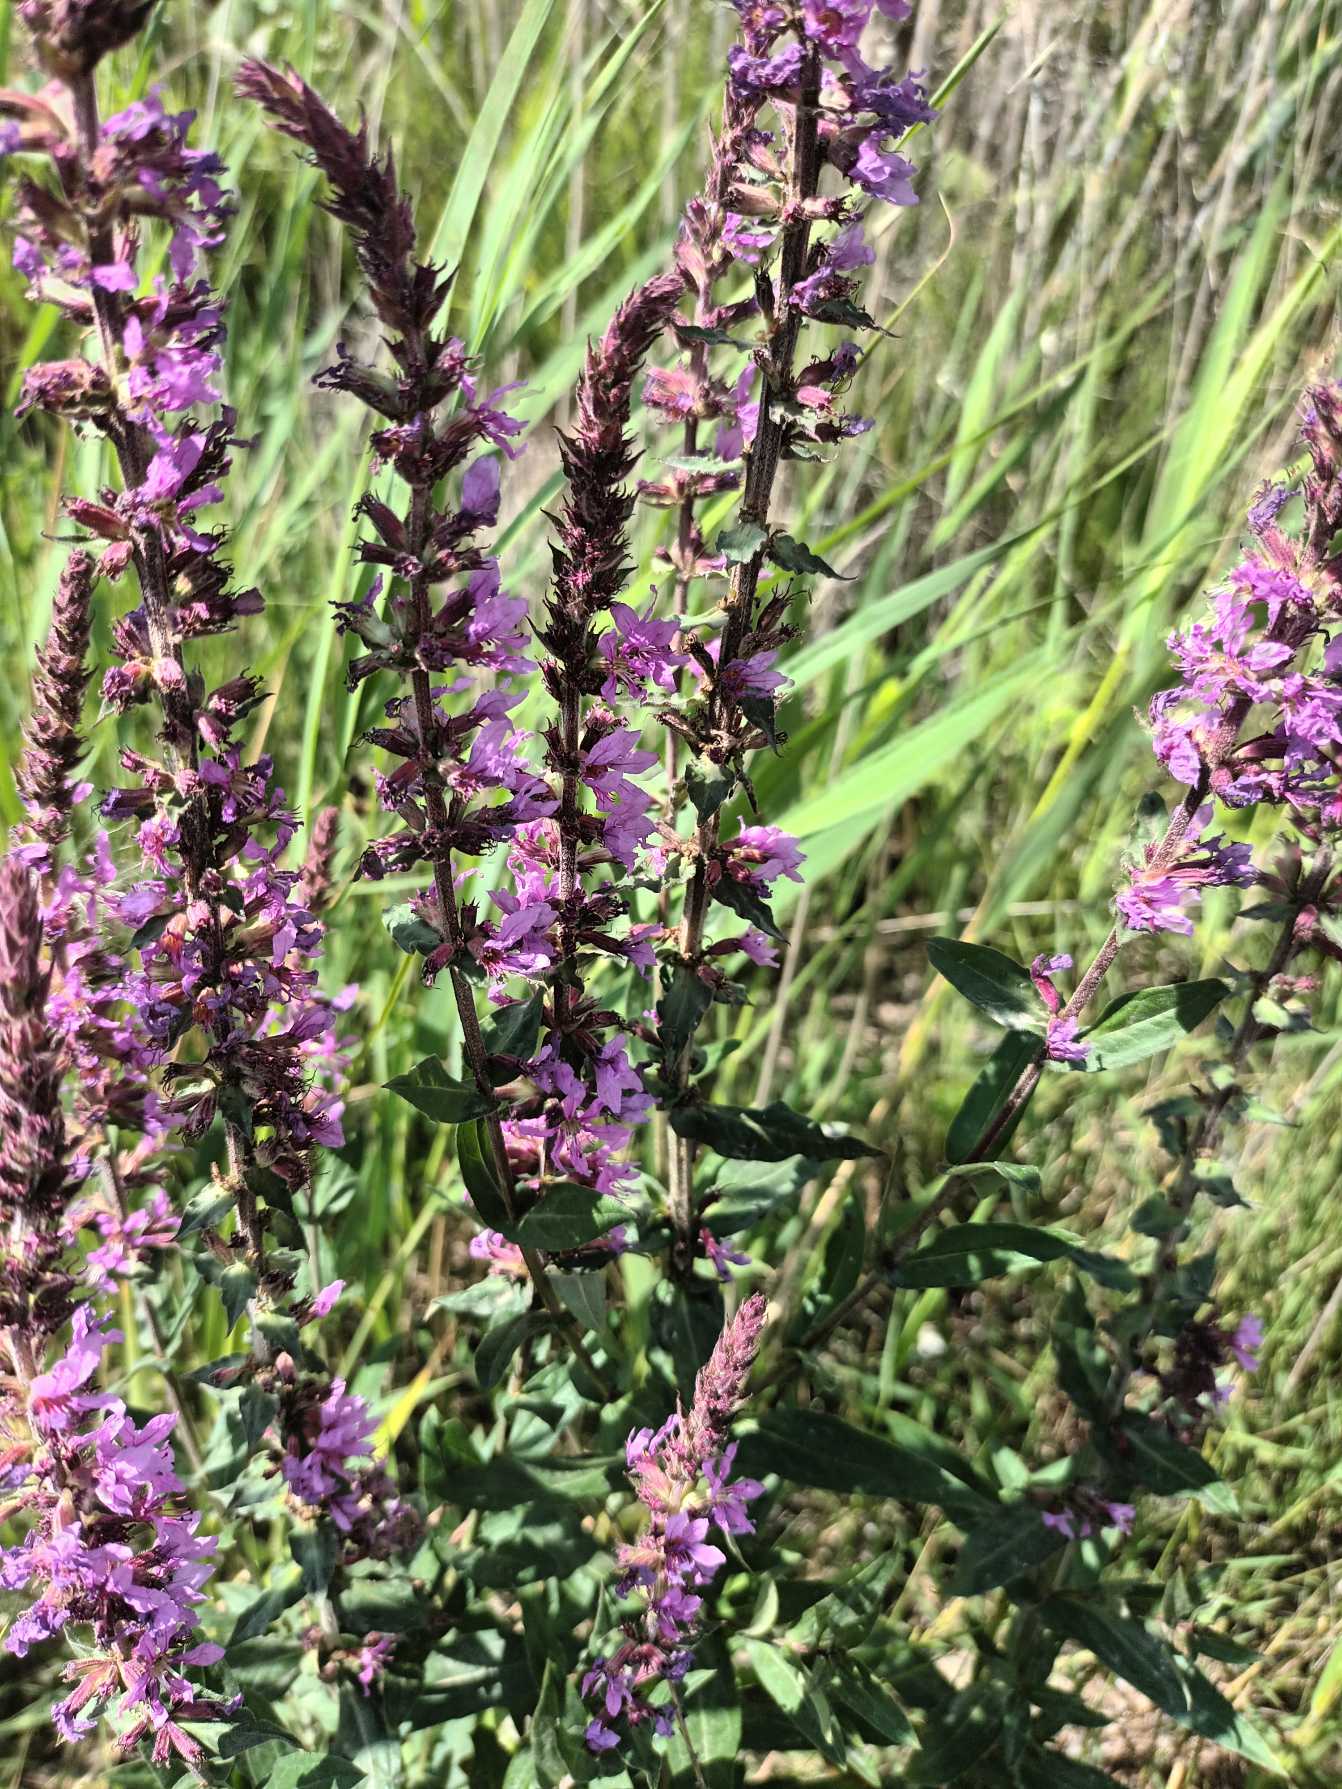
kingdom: Plantae
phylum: Tracheophyta
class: Magnoliopsida
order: Myrtales
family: Lythraceae
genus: Lythrum
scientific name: Lythrum salicaria
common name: Kattehale
